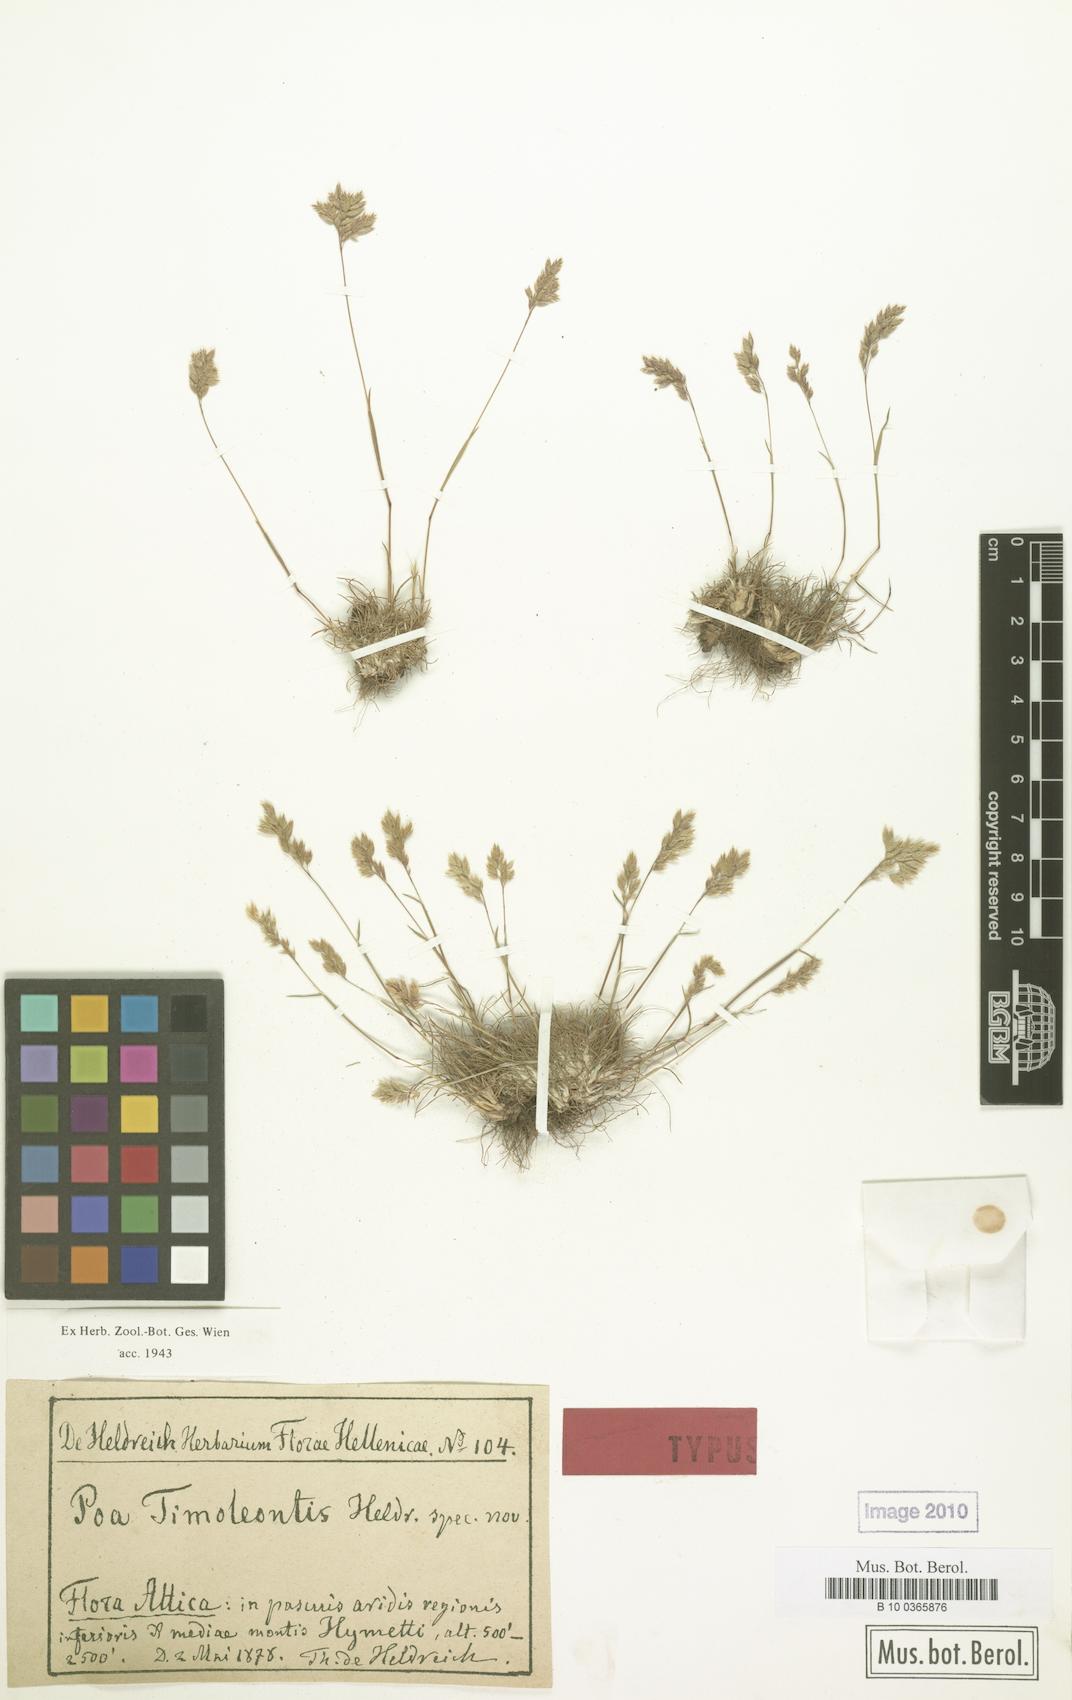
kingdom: Plantae
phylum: Tracheophyta
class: Liliopsida
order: Poales
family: Poaceae
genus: Poa
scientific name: Poa timoleontis
